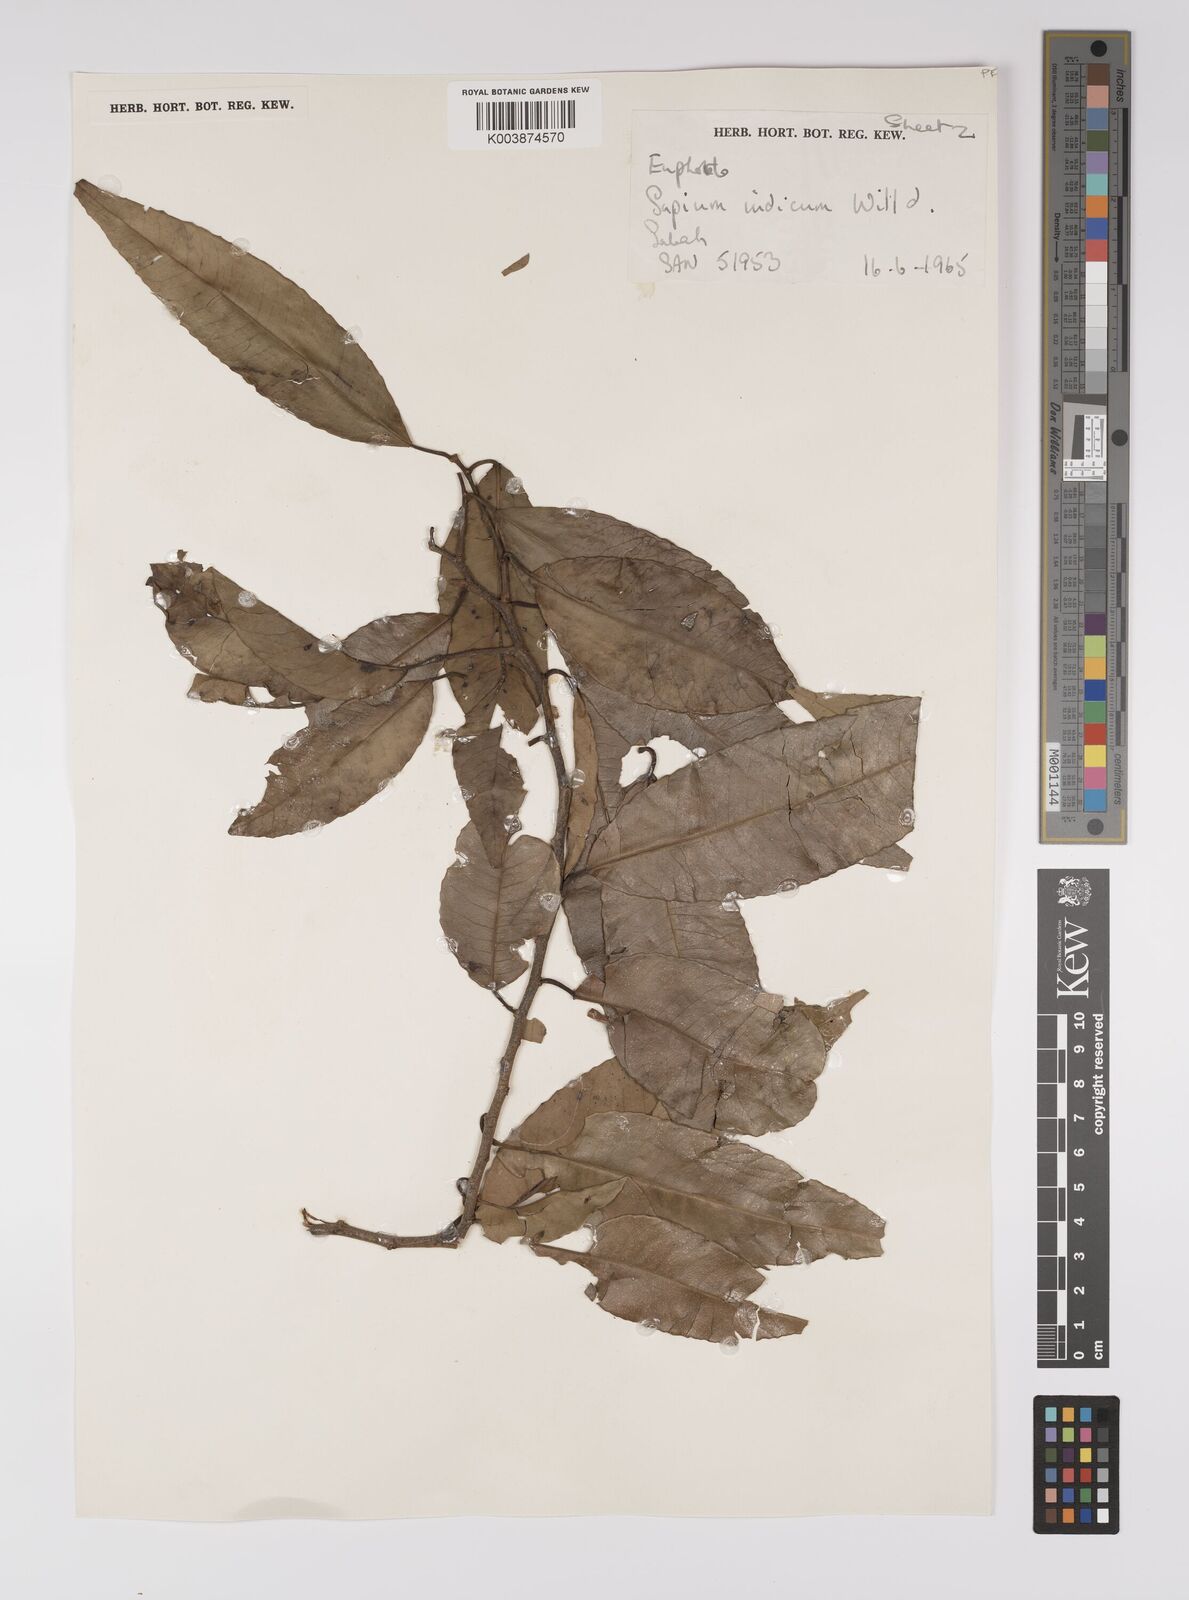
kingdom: Plantae
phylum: Tracheophyta
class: Magnoliopsida
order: Malpighiales
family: Euphorbiaceae
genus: Shirakiopsis
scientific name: Shirakiopsis indica
